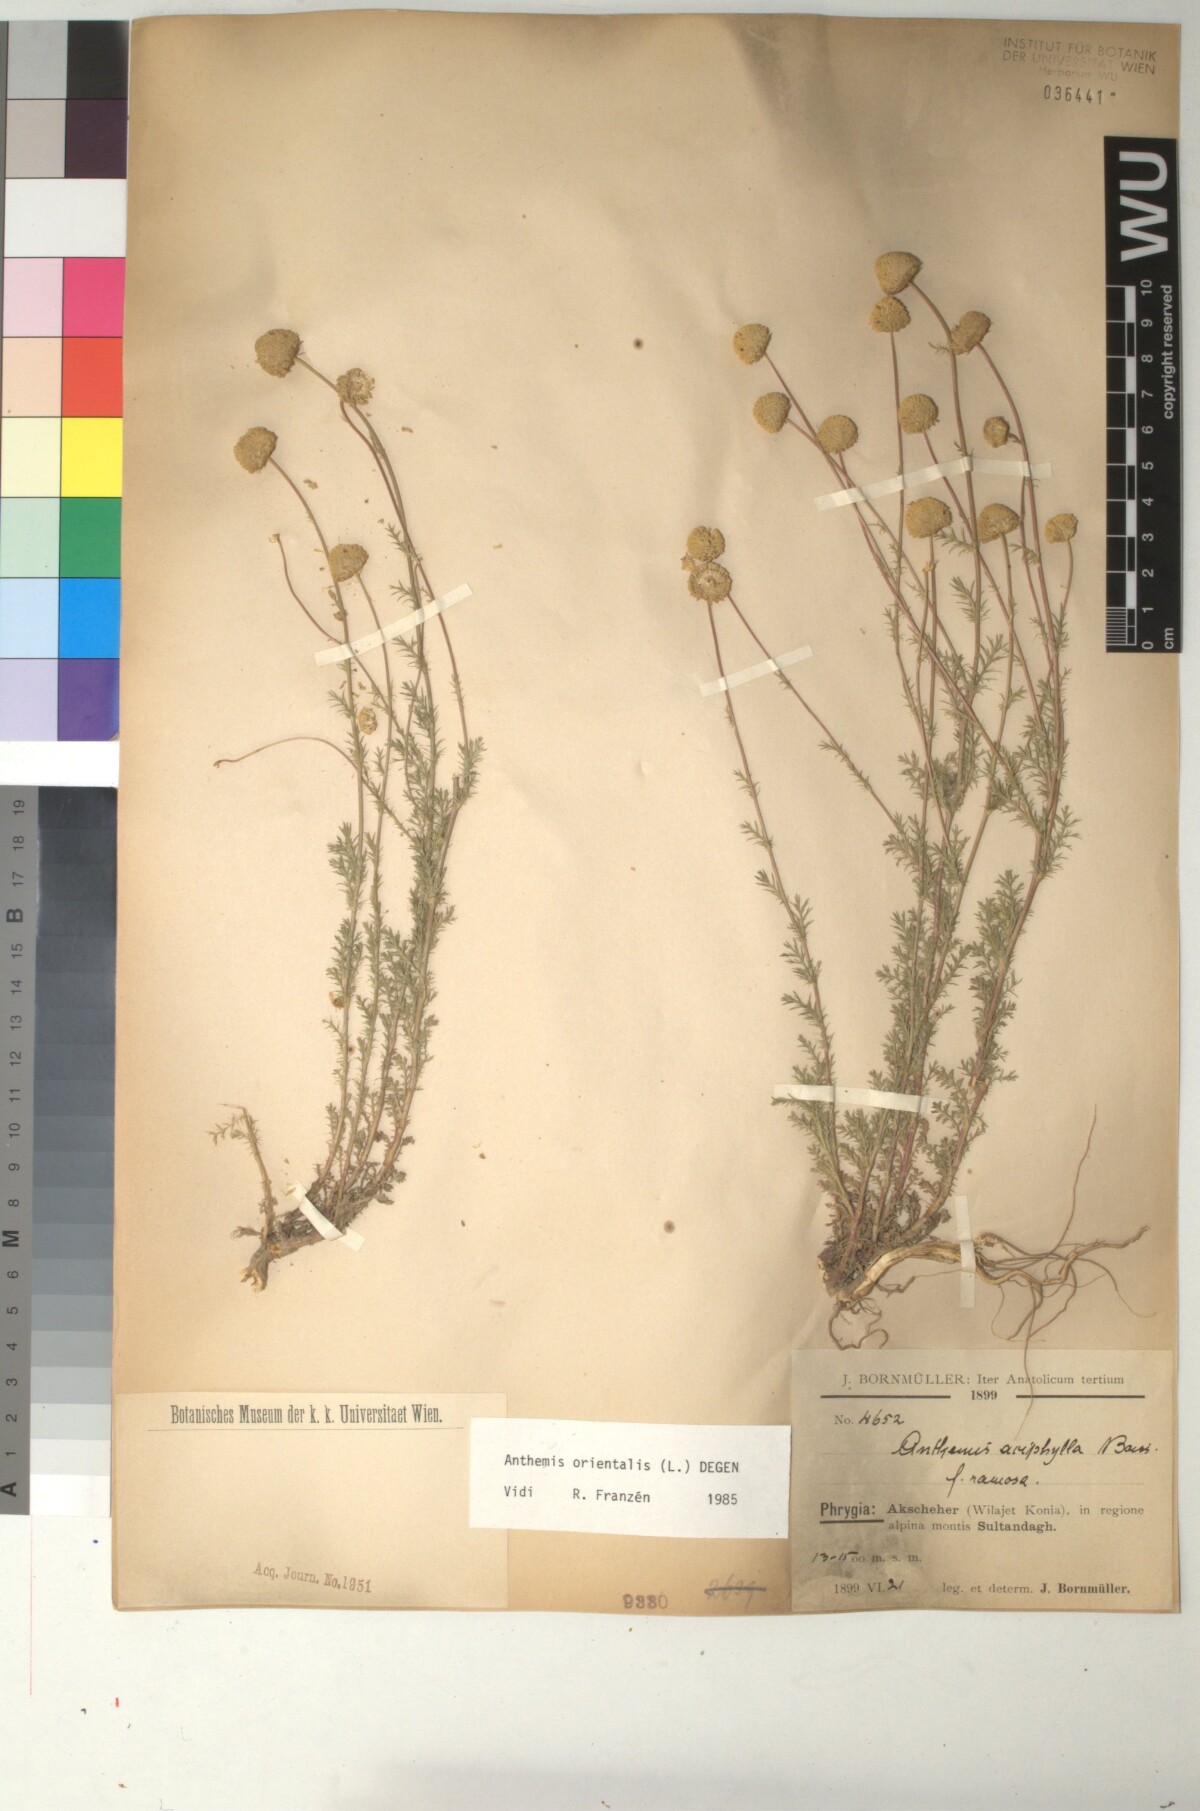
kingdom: Plantae
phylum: Tracheophyta
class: Magnoliopsida
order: Asterales
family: Asteraceae
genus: Anthemis
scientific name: Anthemis orientalis
